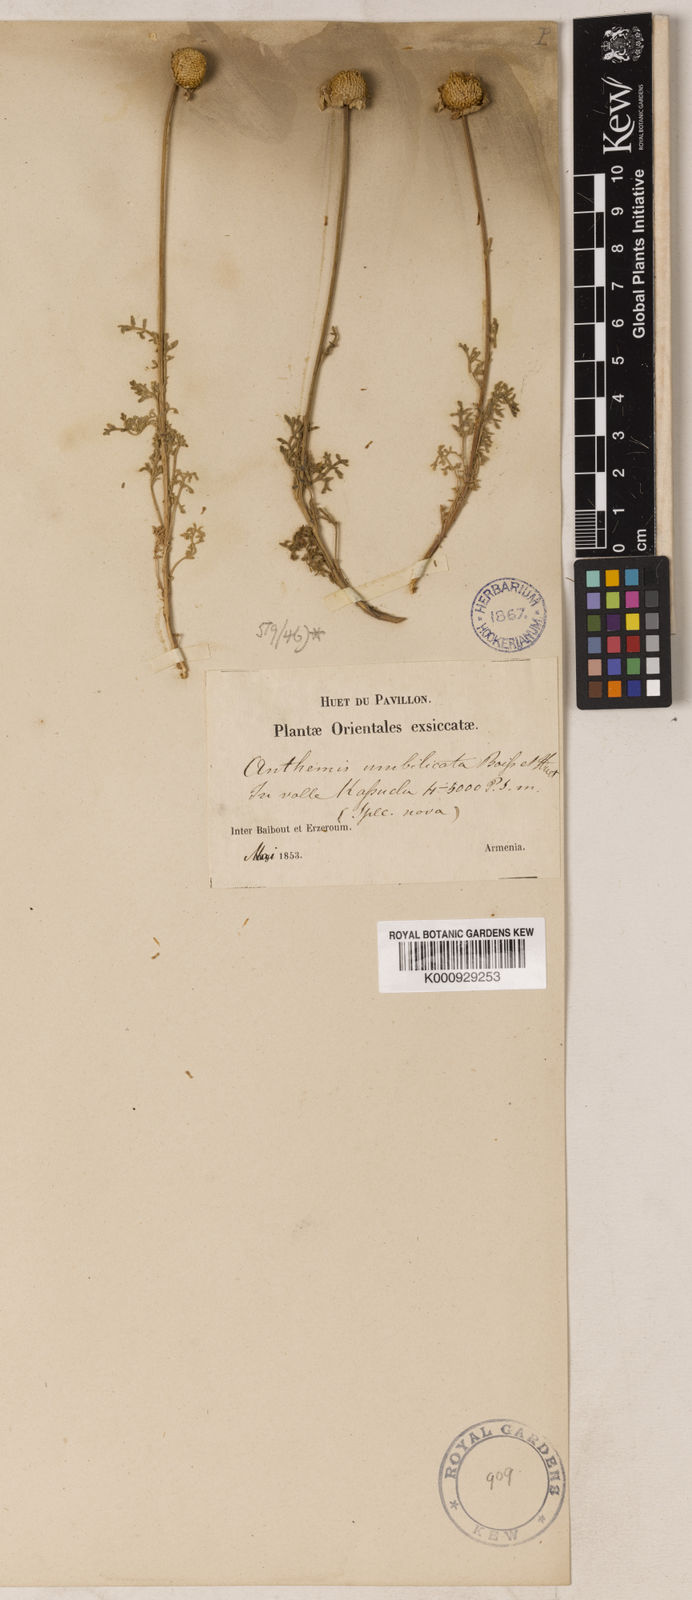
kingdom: Plantae
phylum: Tracheophyta
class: Magnoliopsida
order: Asterales
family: Asteraceae
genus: Anthemis
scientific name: Anthemis cretica
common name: Mountain dog-daisy
